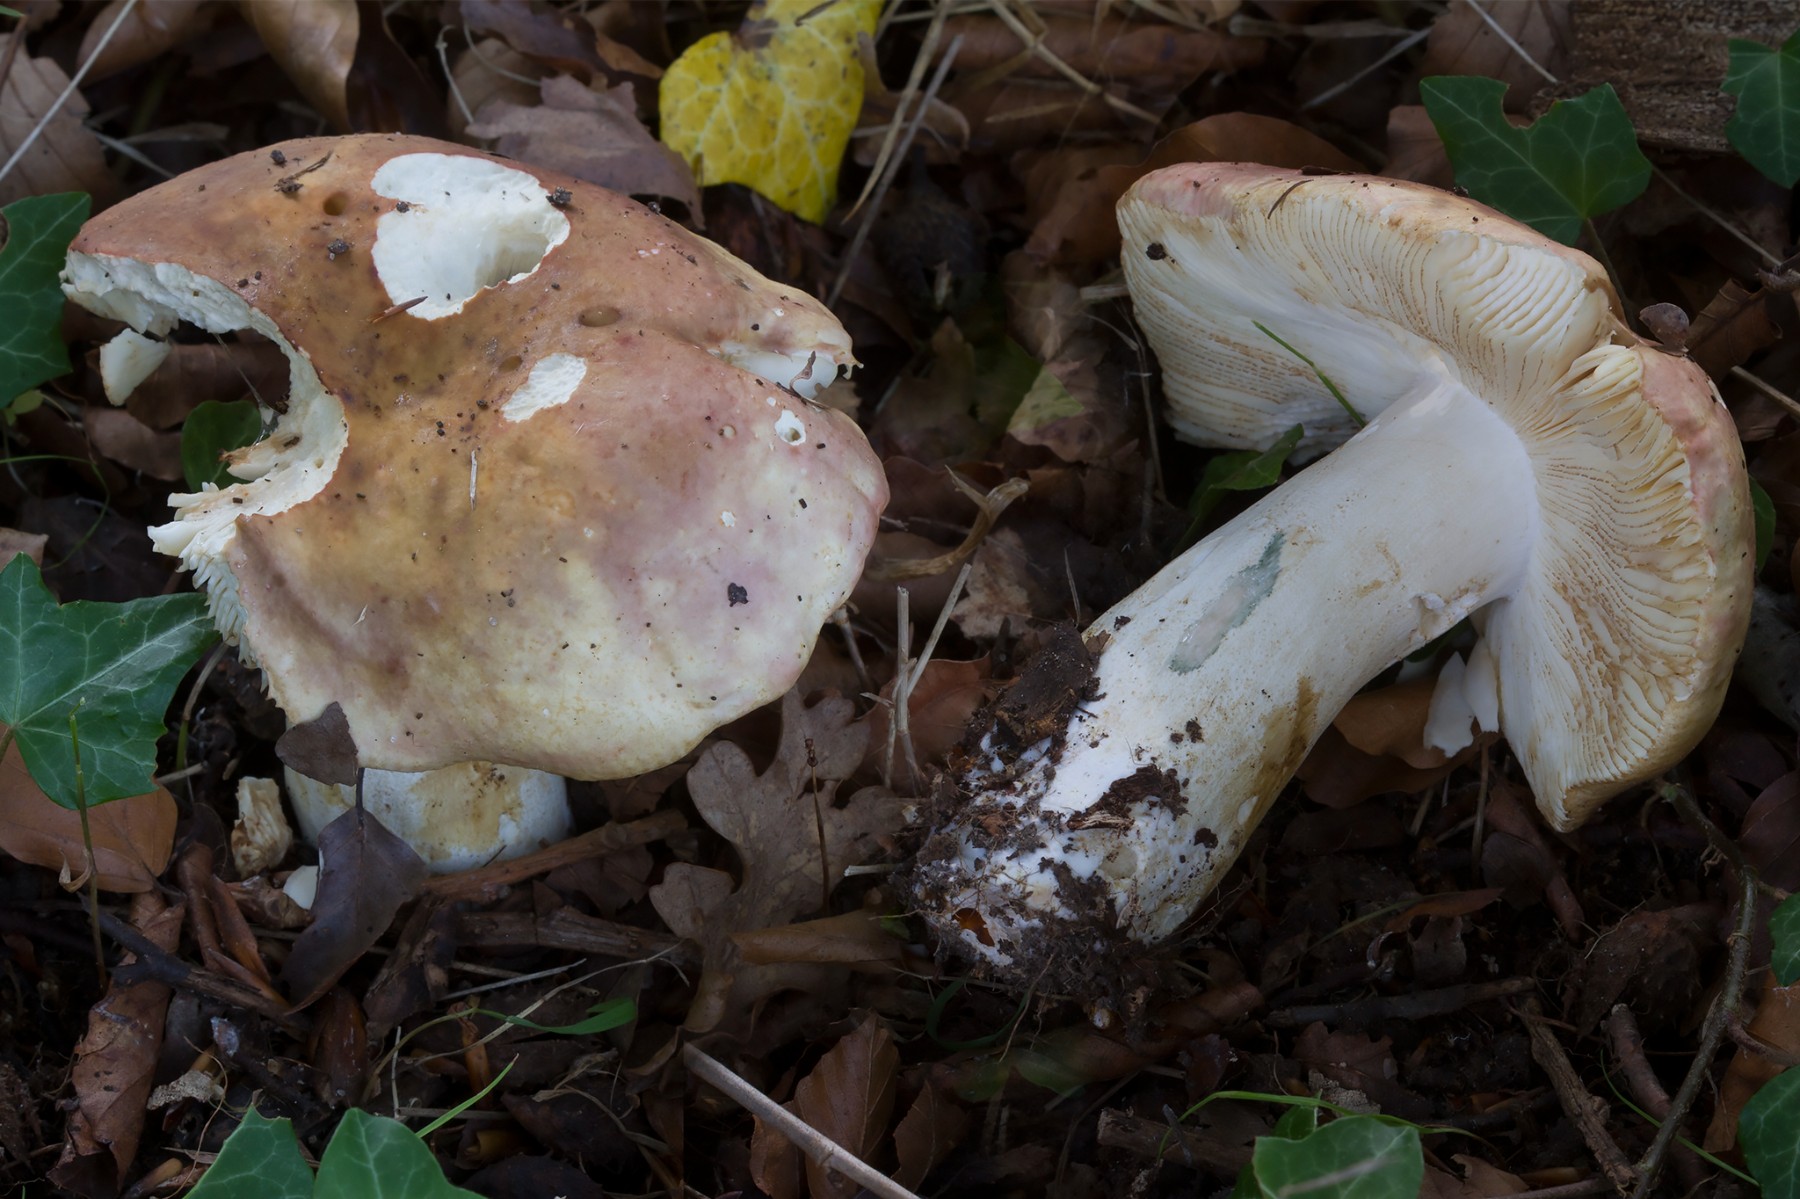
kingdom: Fungi
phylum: Basidiomycota
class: Agaricomycetes
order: Russulales
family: Russulaceae
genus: Russula
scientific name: Russula faginea
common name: bøge-skørhat
